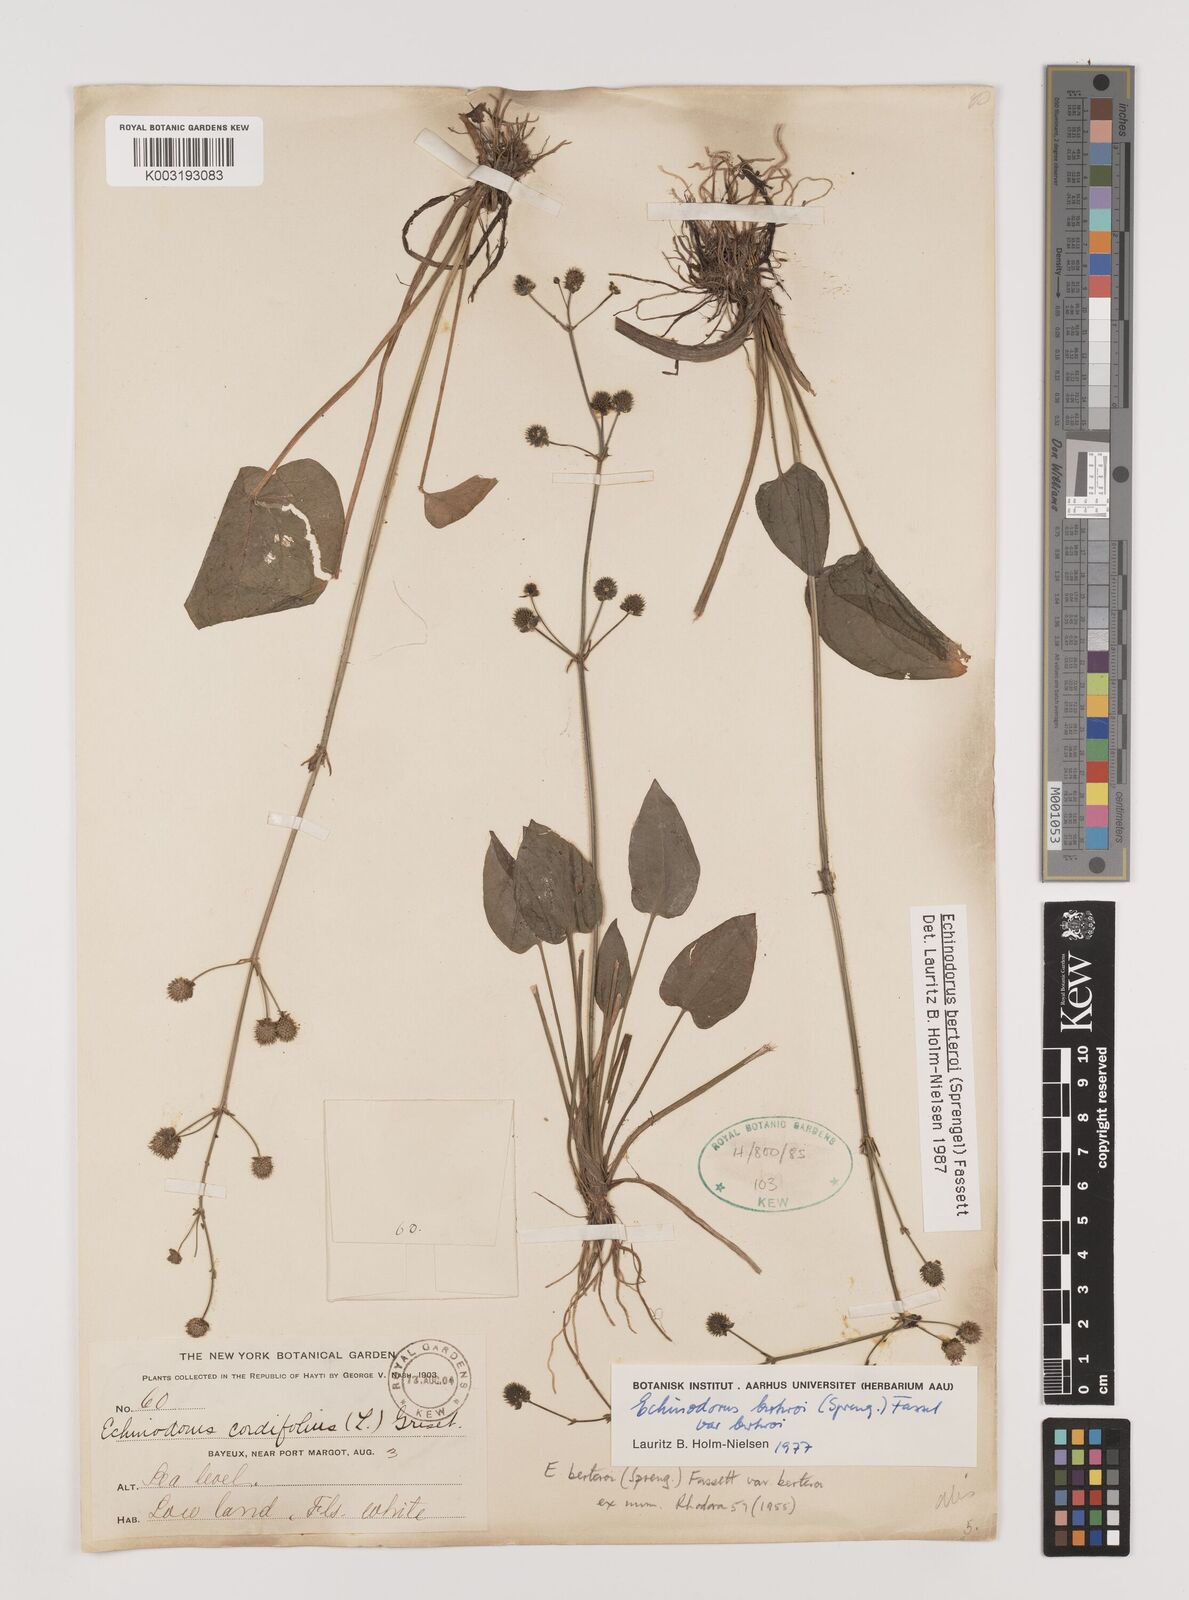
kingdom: Plantae
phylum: Tracheophyta
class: Liliopsida
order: Alismatales
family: Alismataceae
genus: Echinodorus
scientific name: Echinodorus berteroi
